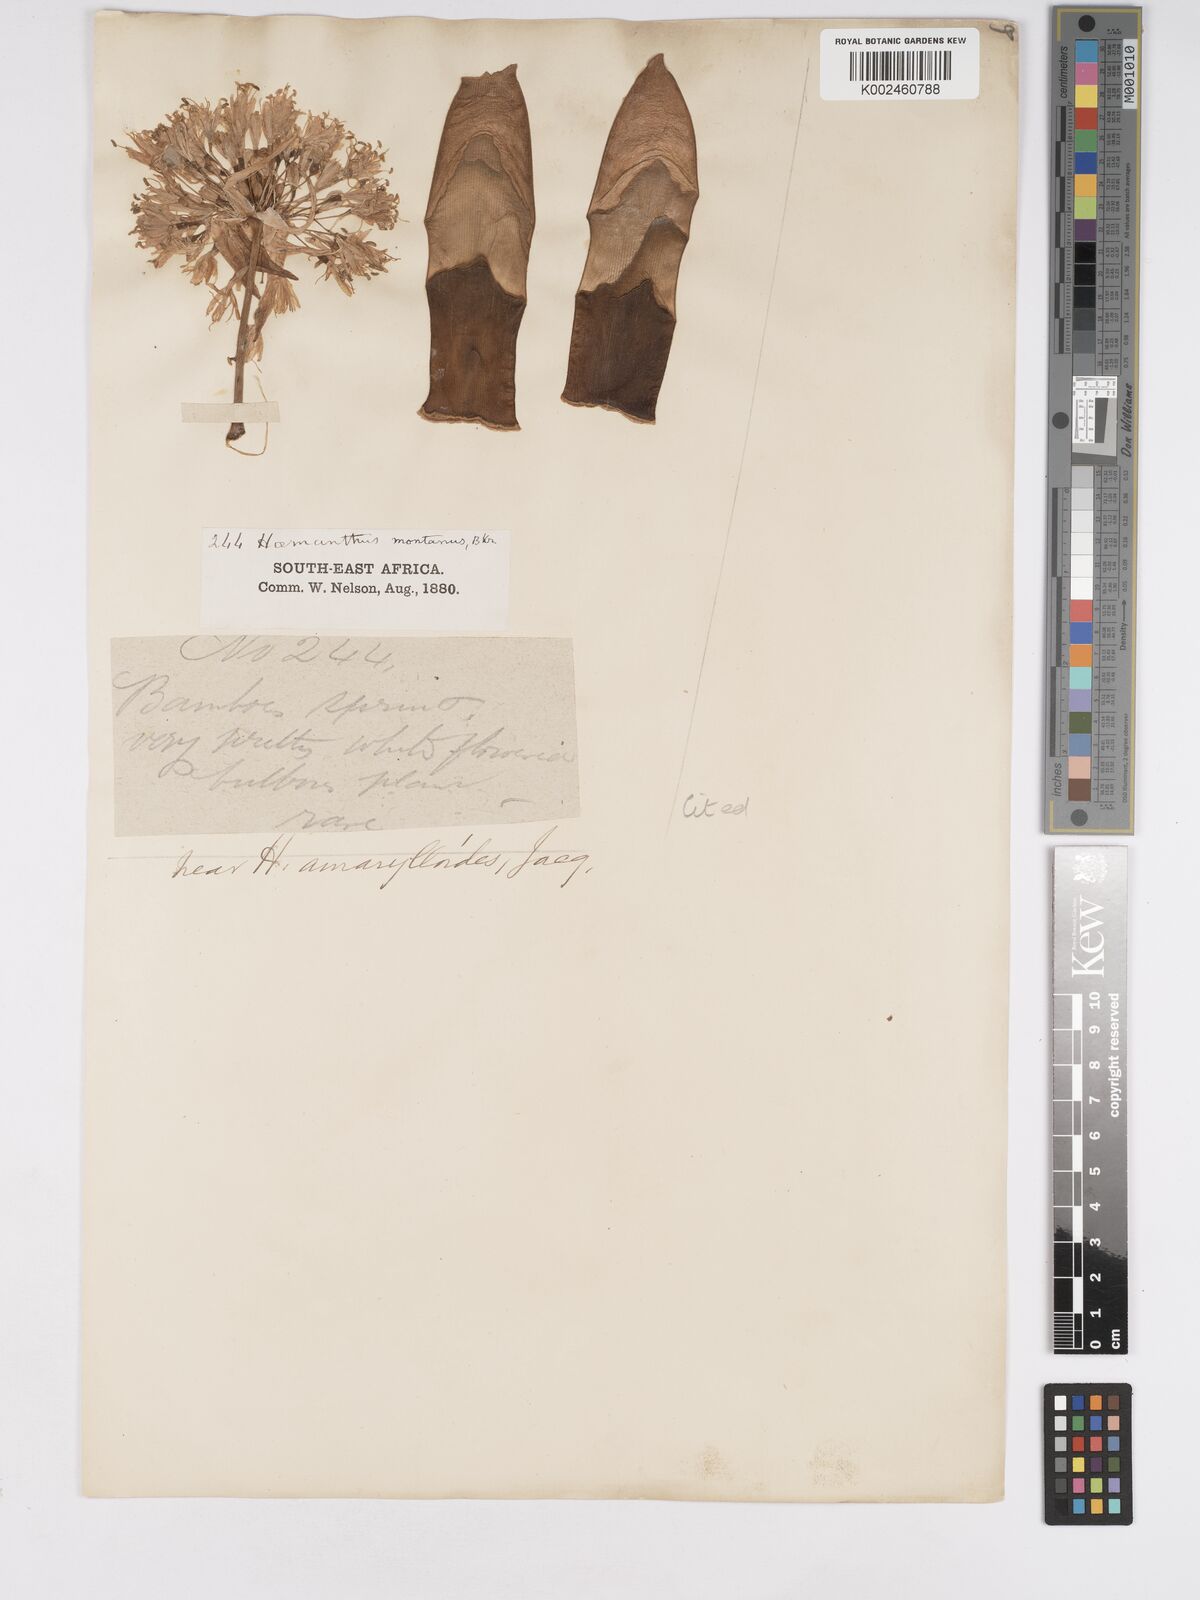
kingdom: Plantae
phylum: Tracheophyta
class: Liliopsida
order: Asparagales
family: Amaryllidaceae
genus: Haemanthus
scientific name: Haemanthus montanus
